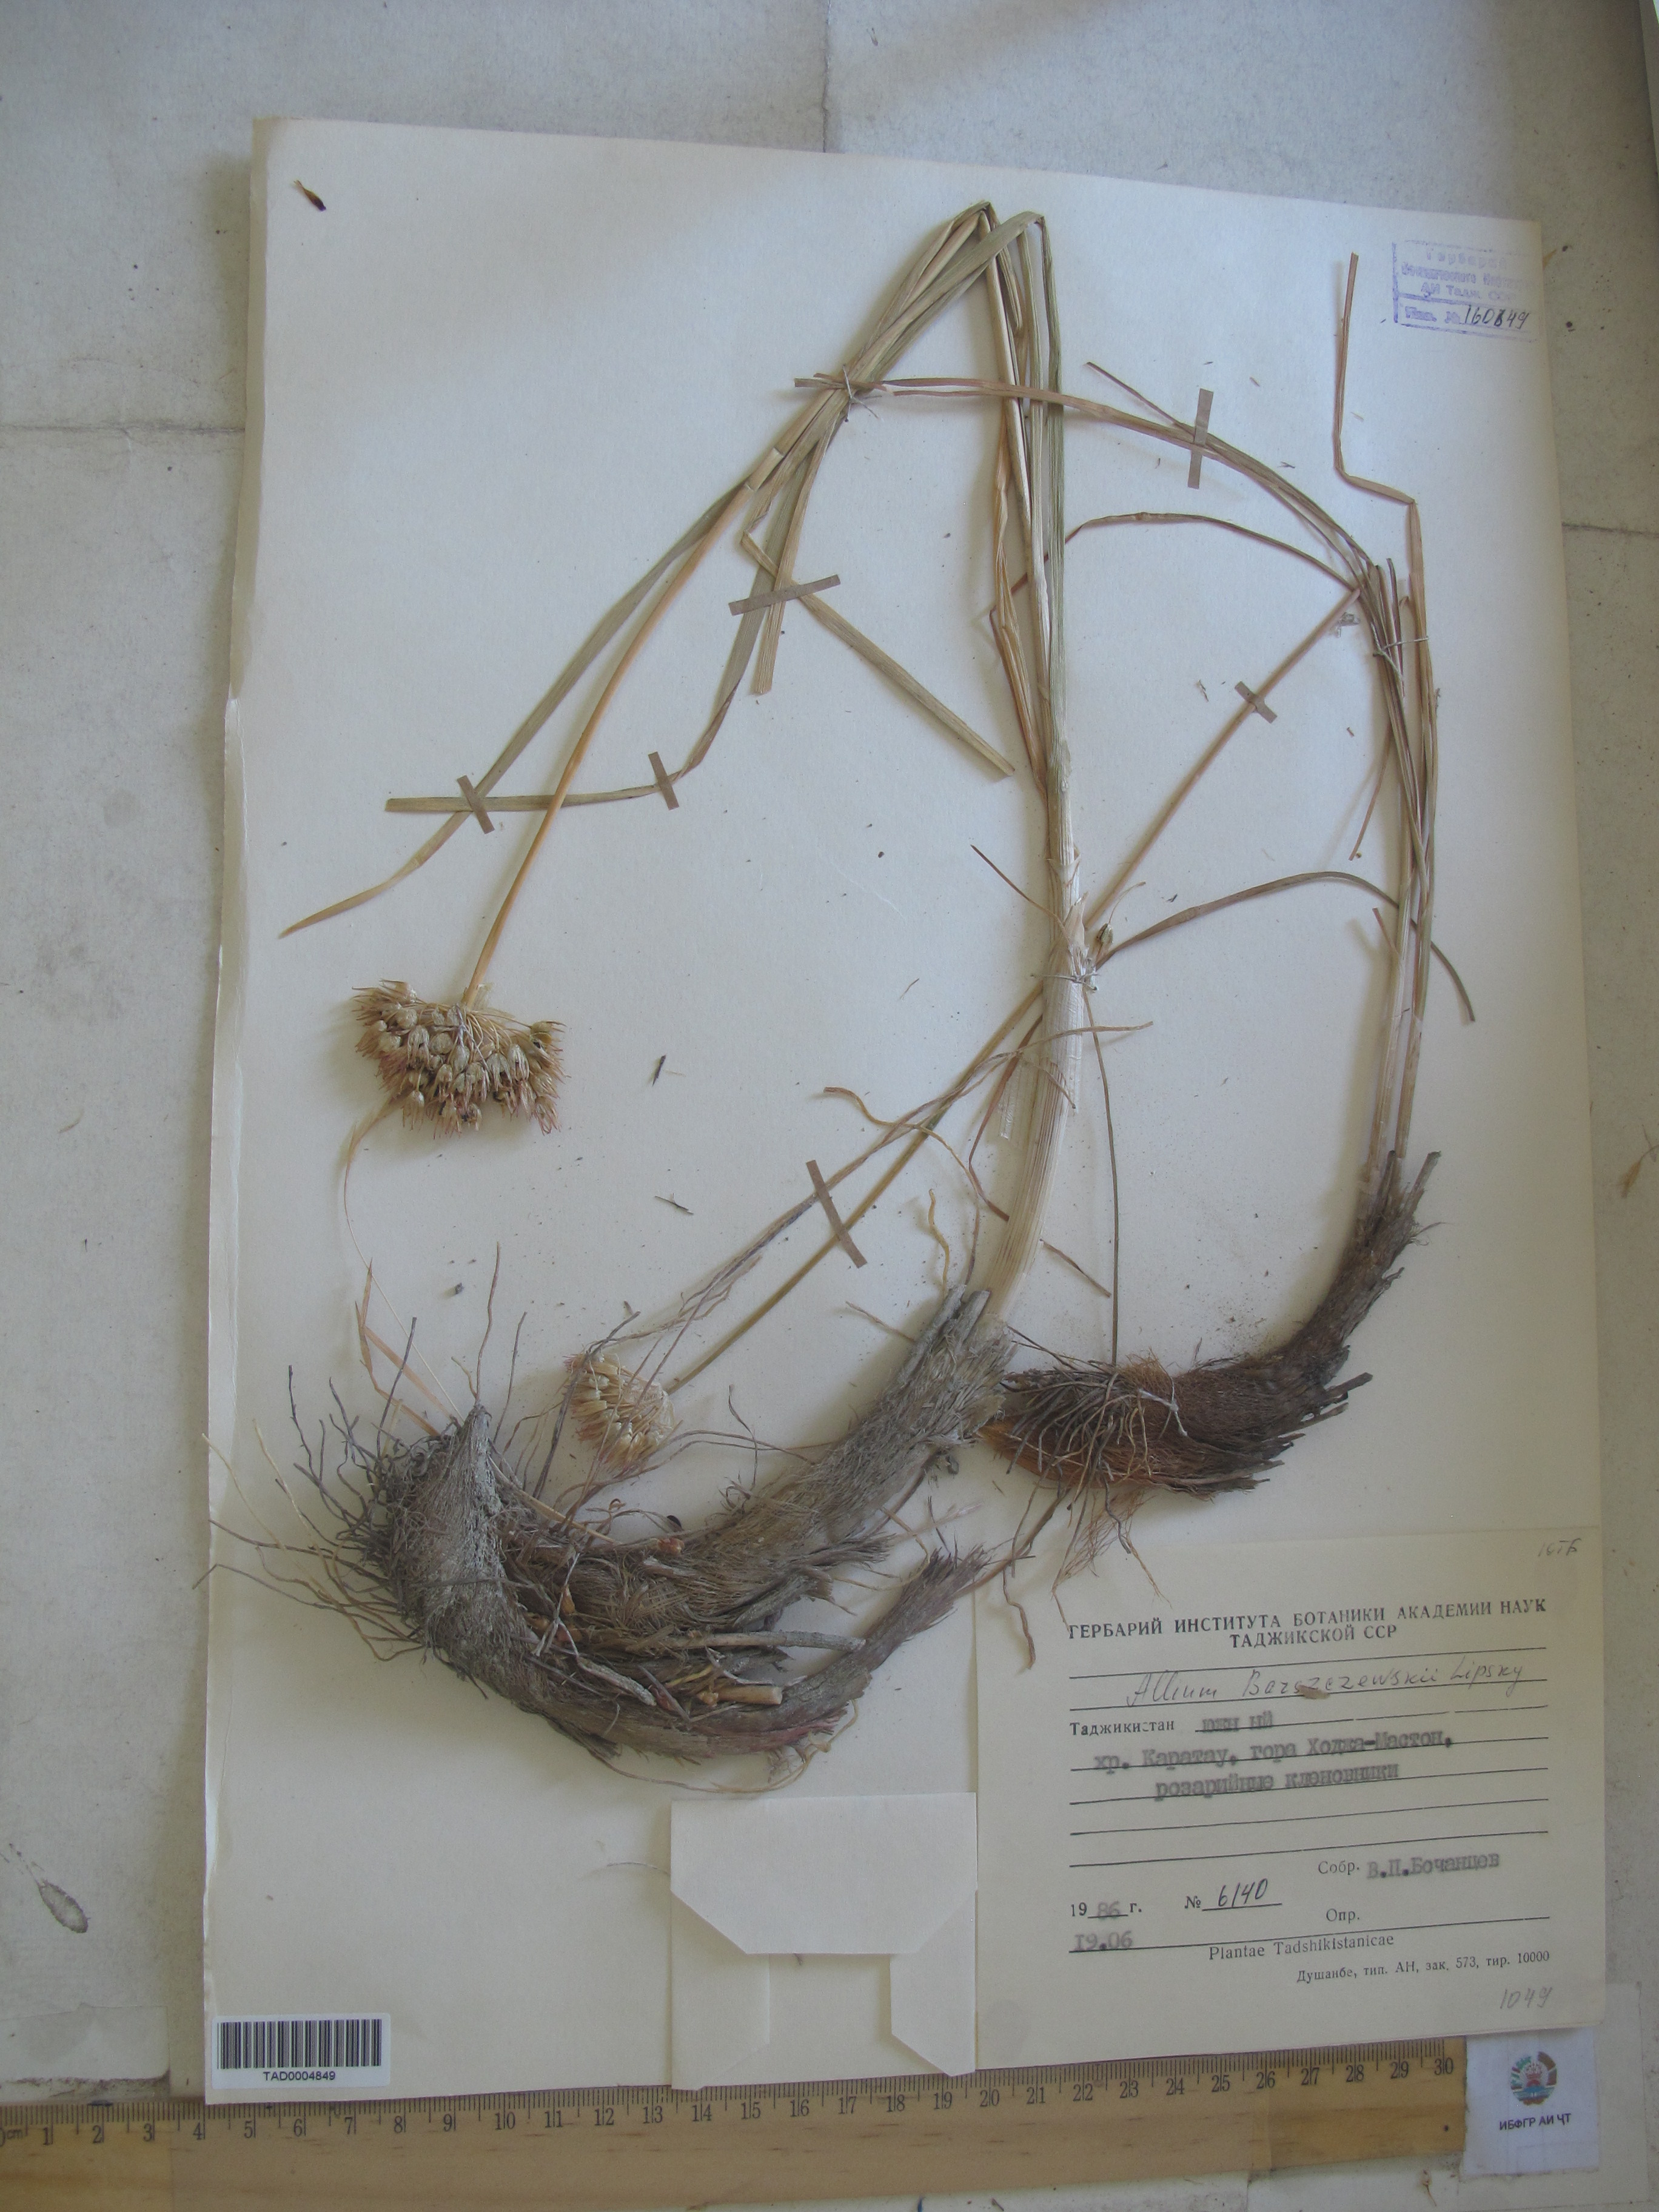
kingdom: Plantae
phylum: Tracheophyta
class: Liliopsida
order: Asparagales
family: Amaryllidaceae
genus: Allium
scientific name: Allium barsczewskii
